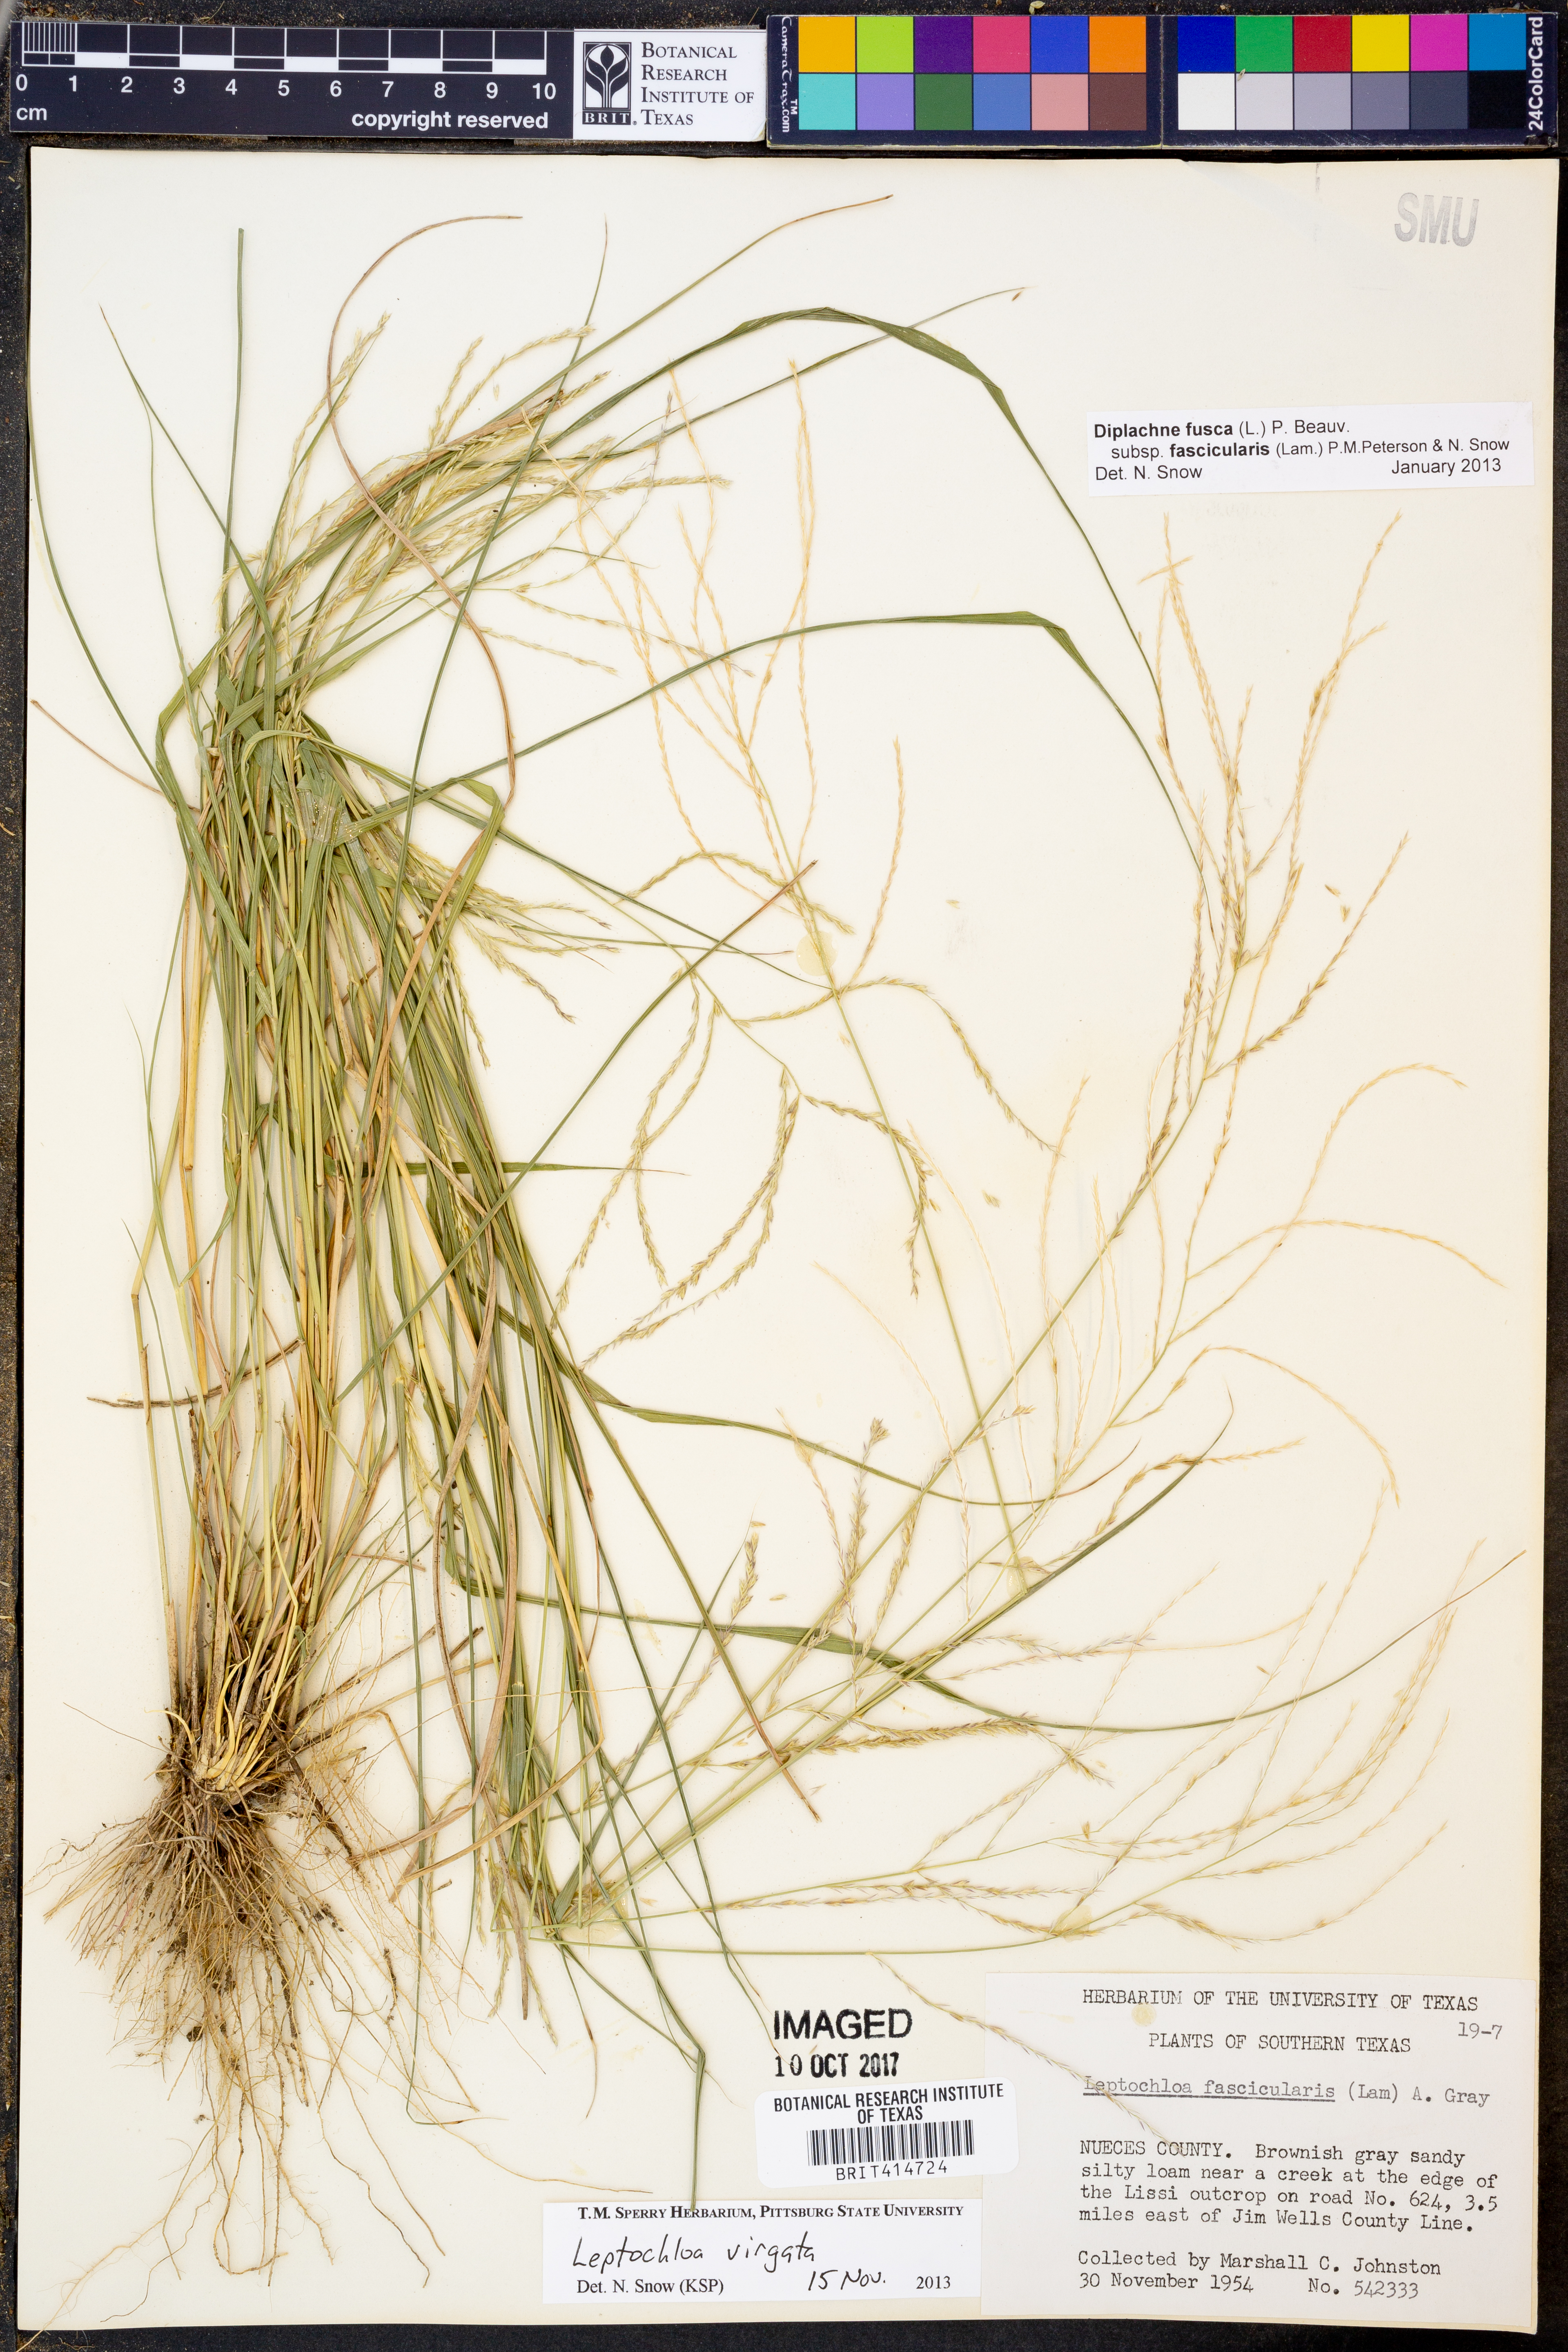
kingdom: Plantae
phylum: Tracheophyta
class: Liliopsida
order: Poales
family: Poaceae
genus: Dinebra
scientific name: Dinebra polystachyos
